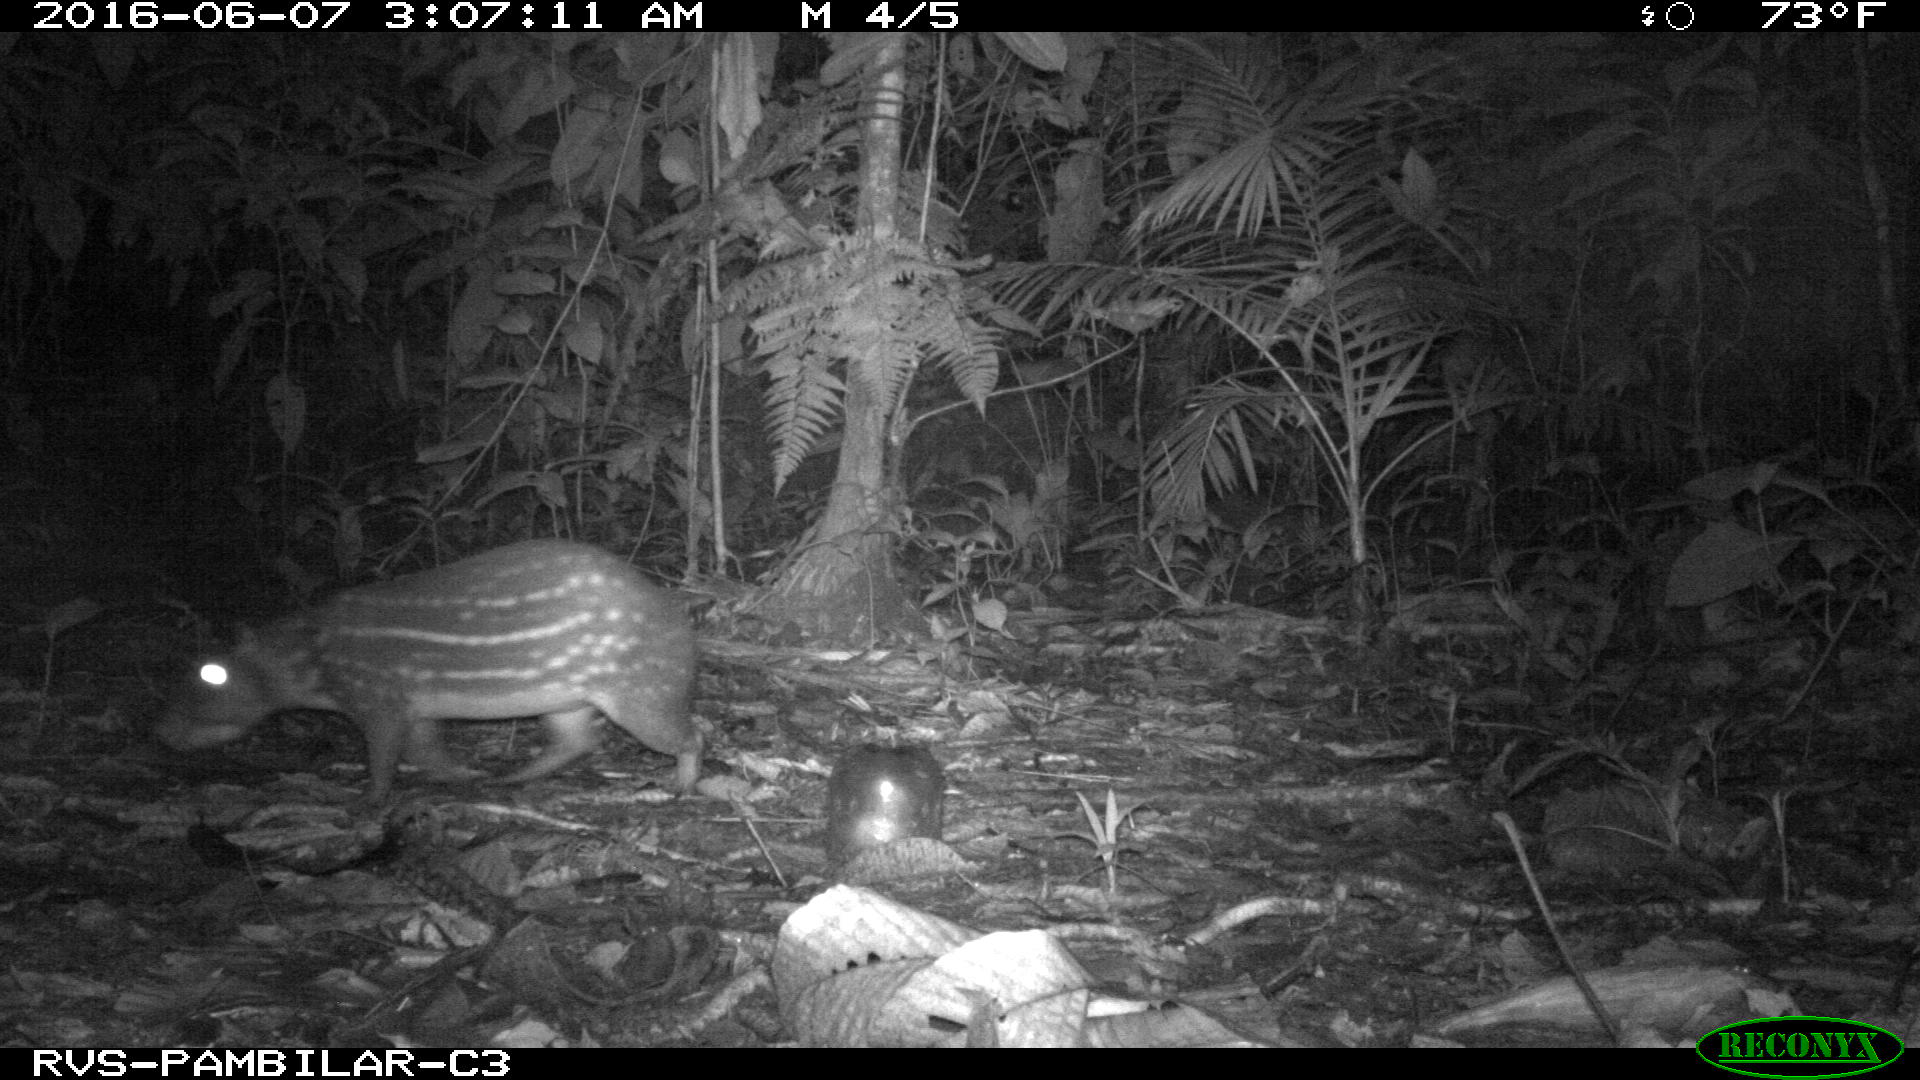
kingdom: Animalia
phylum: Chordata
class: Mammalia
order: Rodentia
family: Cuniculidae
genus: Cuniculus
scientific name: Cuniculus paca
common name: Lowland paca
